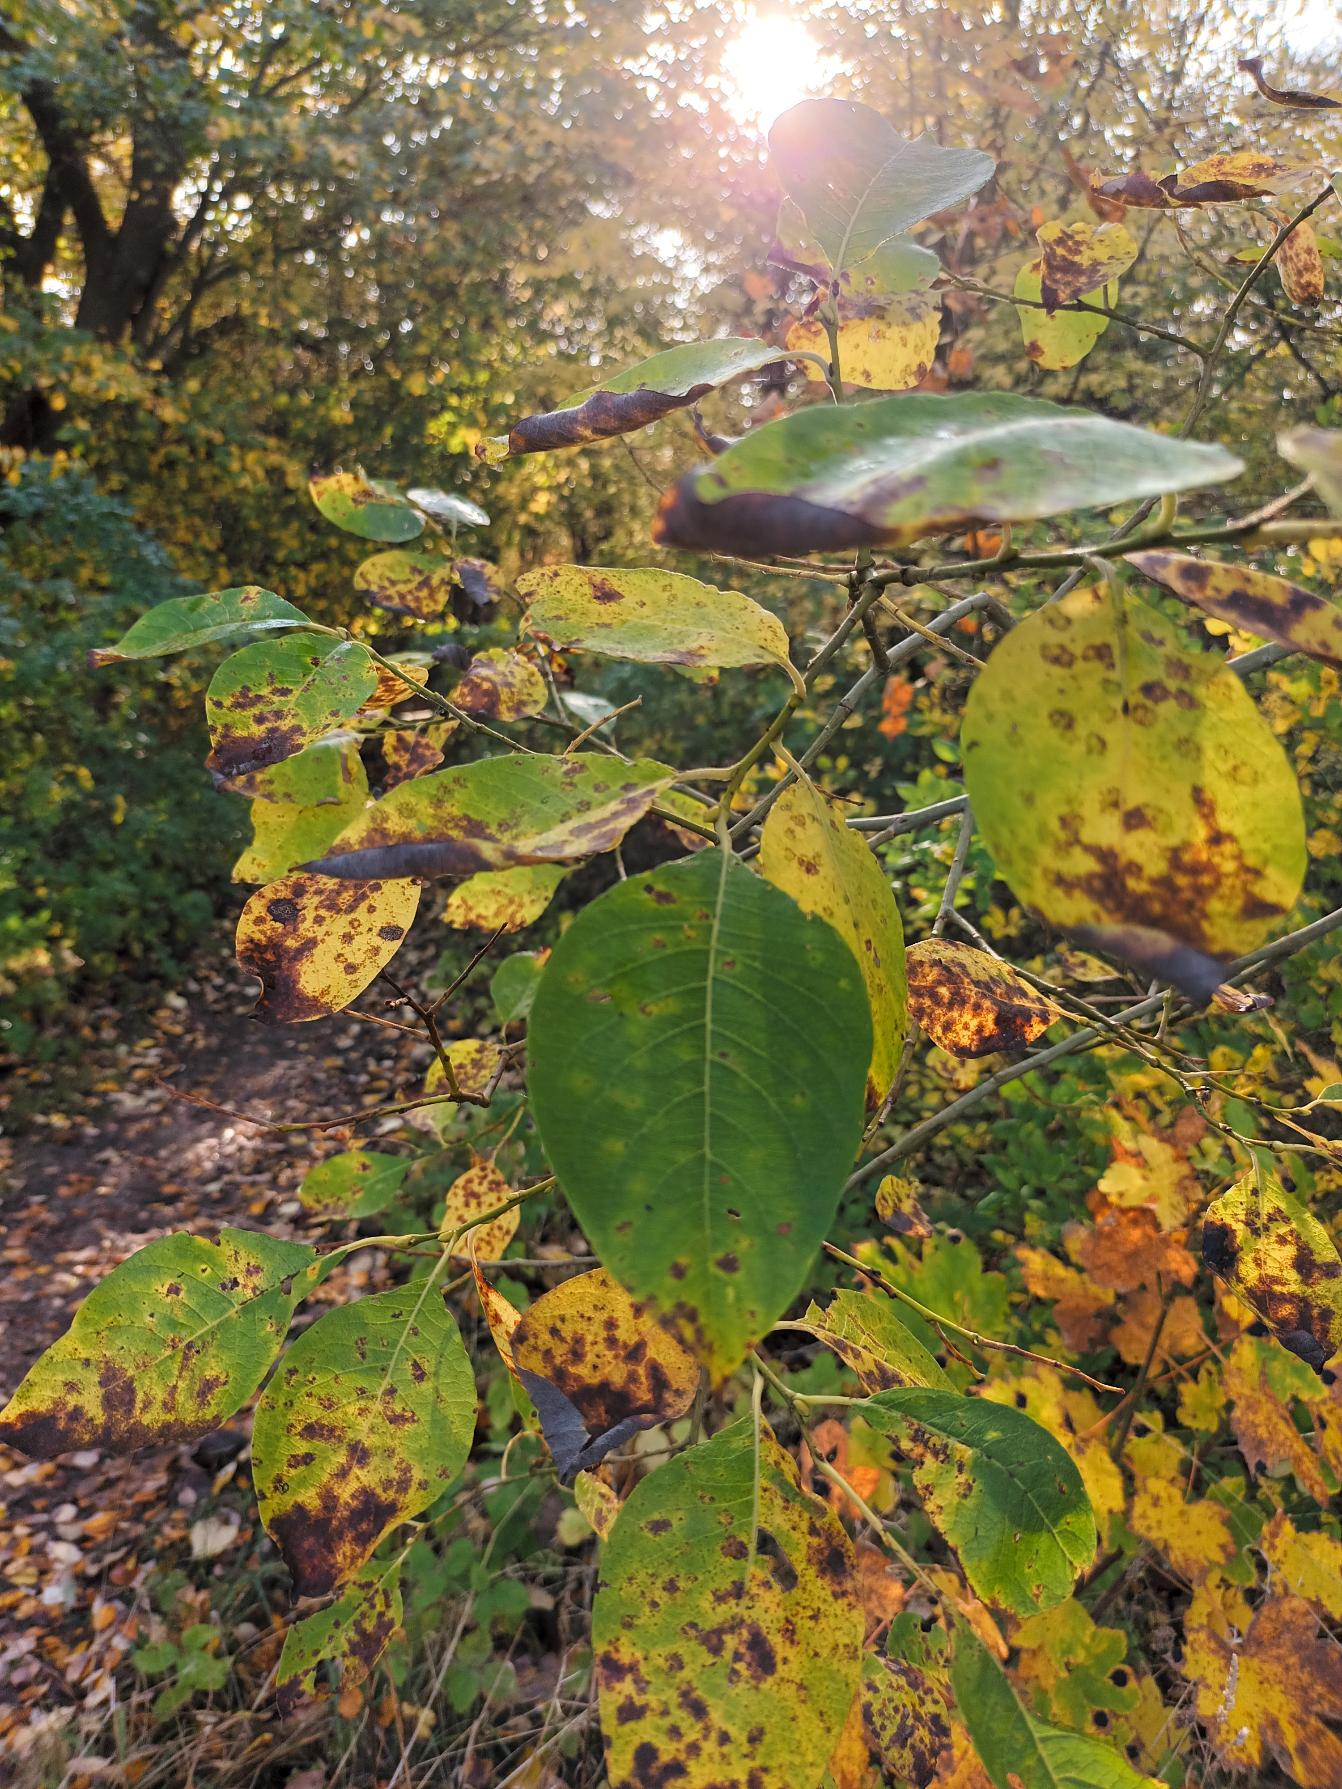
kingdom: Plantae
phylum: Tracheophyta
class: Magnoliopsida
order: Malpighiales
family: Salicaceae
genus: Salix
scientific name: Salix caprea
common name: Selje-pil
